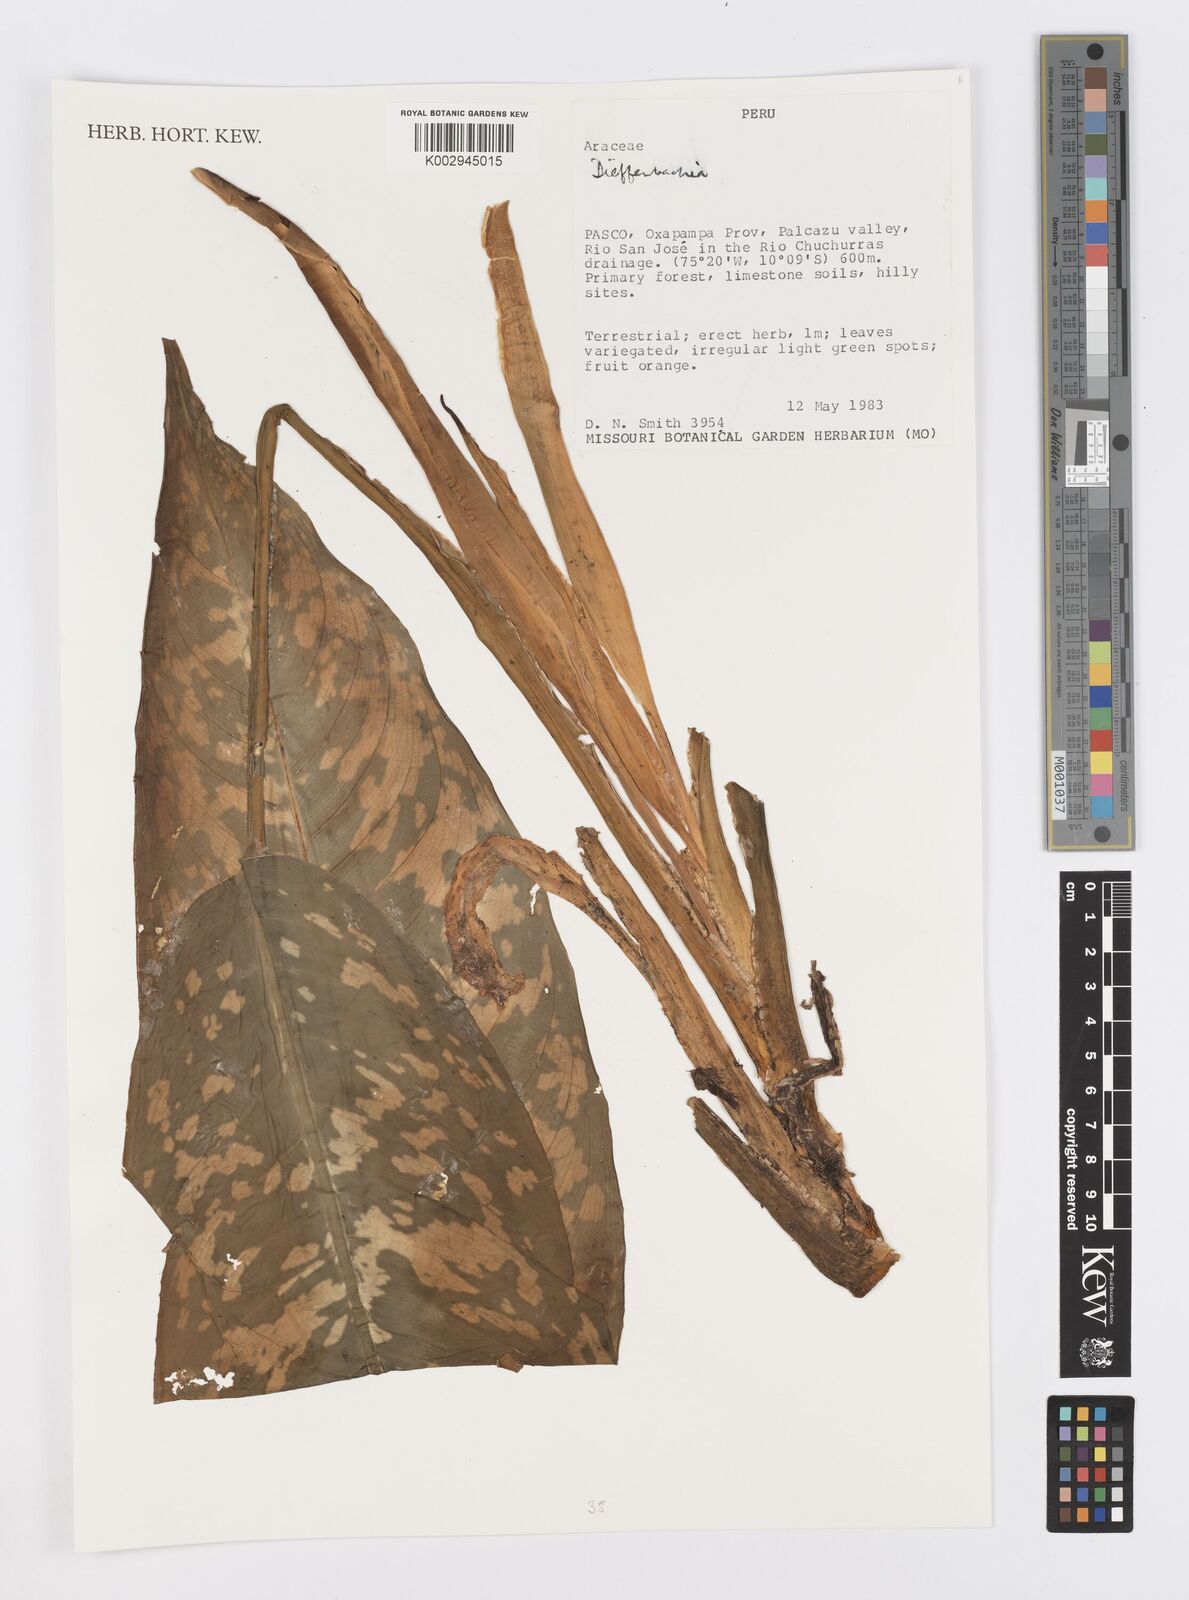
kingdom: Plantae
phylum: Tracheophyta
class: Liliopsida
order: Alismatales
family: Araceae
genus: Dieffenbachia
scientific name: Dieffenbachia
